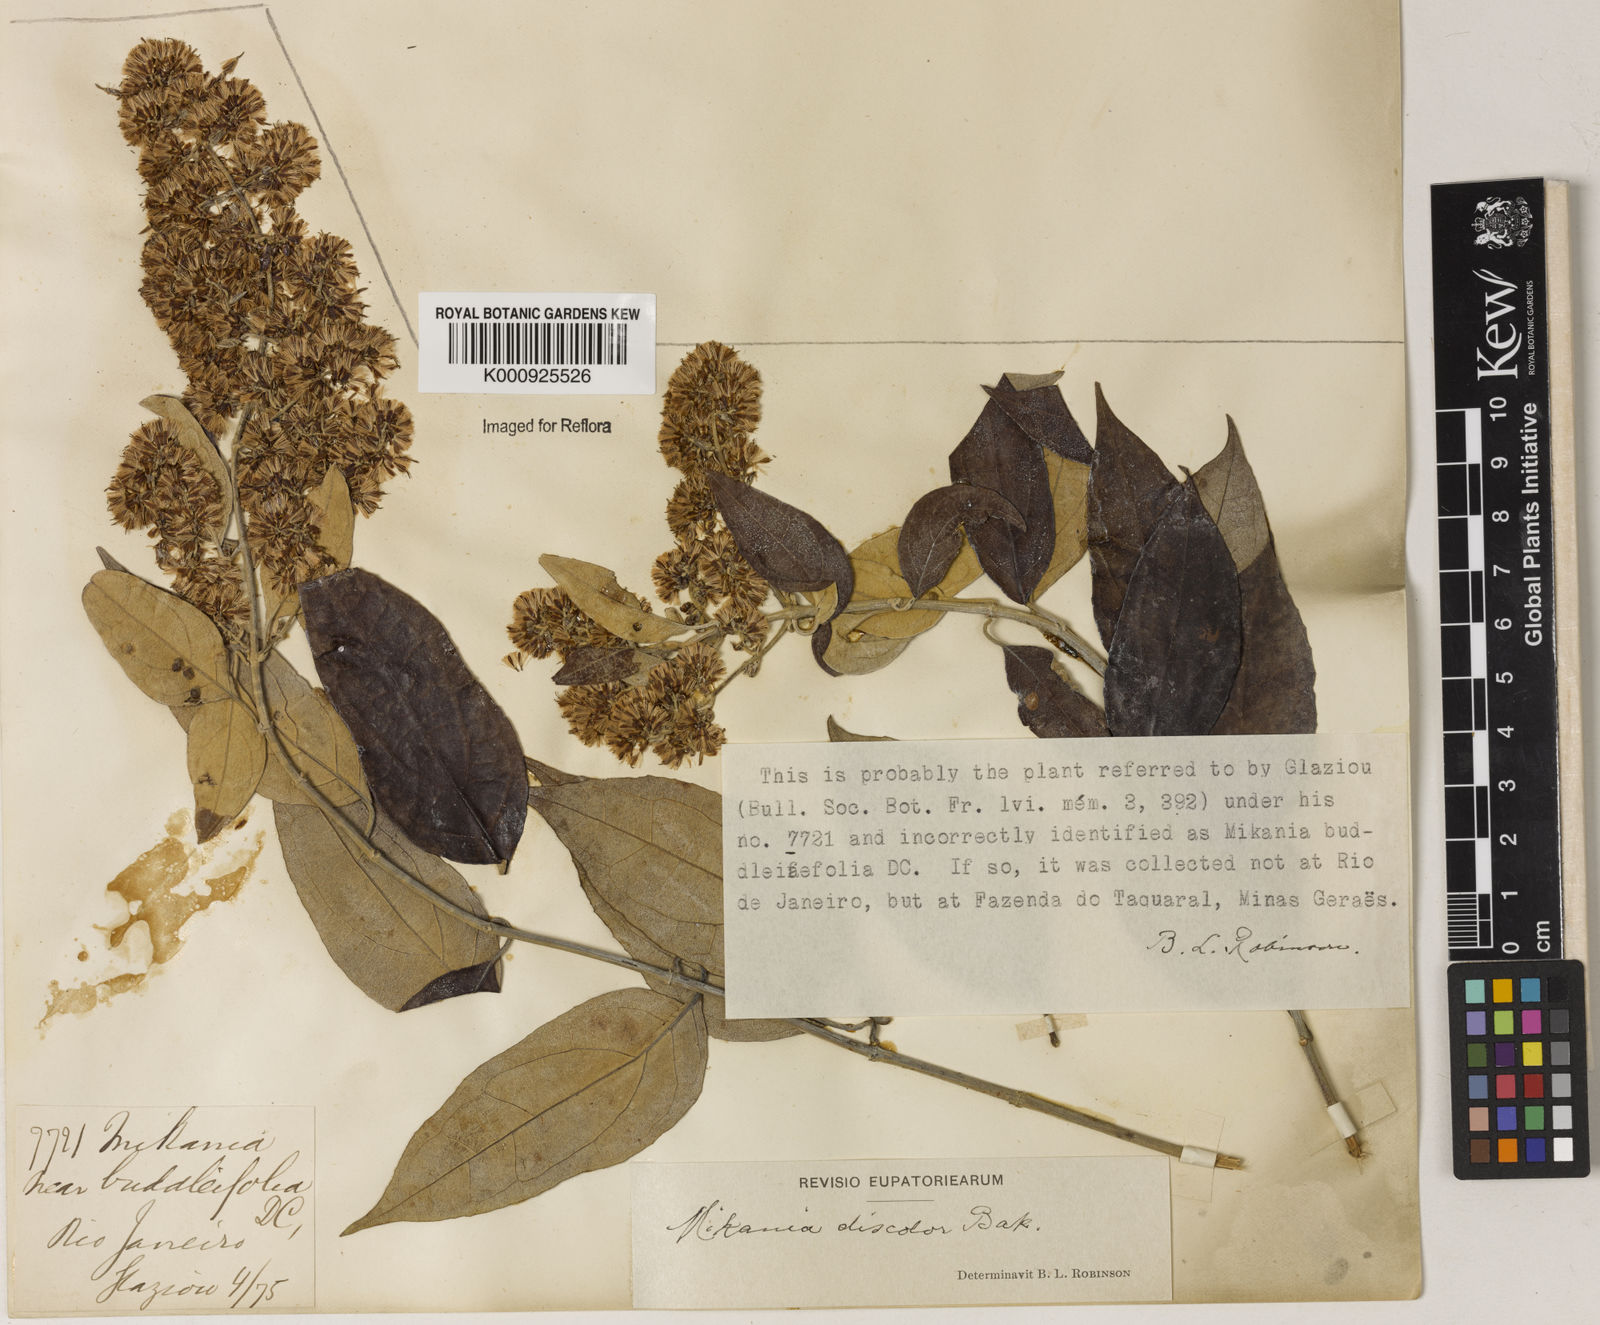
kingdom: Plantae
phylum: Tracheophyta
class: Magnoliopsida
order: Asterales
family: Asteraceae
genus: Mikania
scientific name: Mikania buddlejifolia
